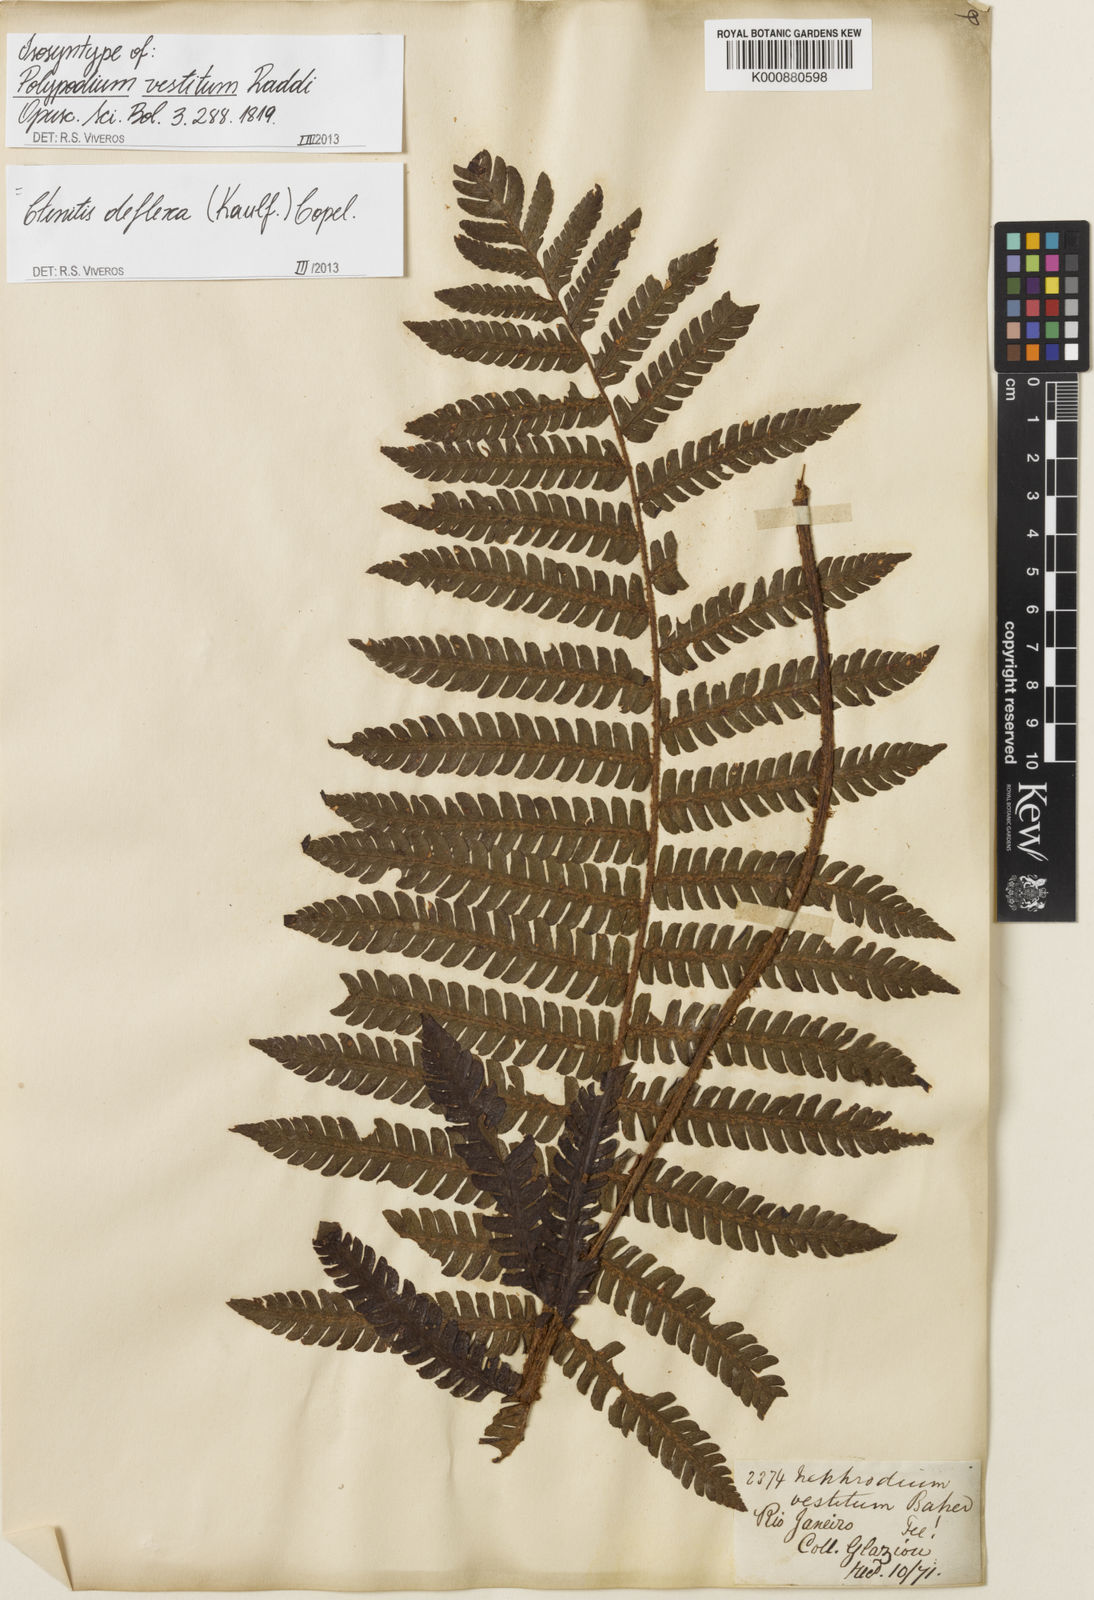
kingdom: Plantae
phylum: Tracheophyta
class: Polypodiopsida
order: Polypodiales
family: Dryopteridaceae
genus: Ctenitis
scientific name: Ctenitis deflexa
